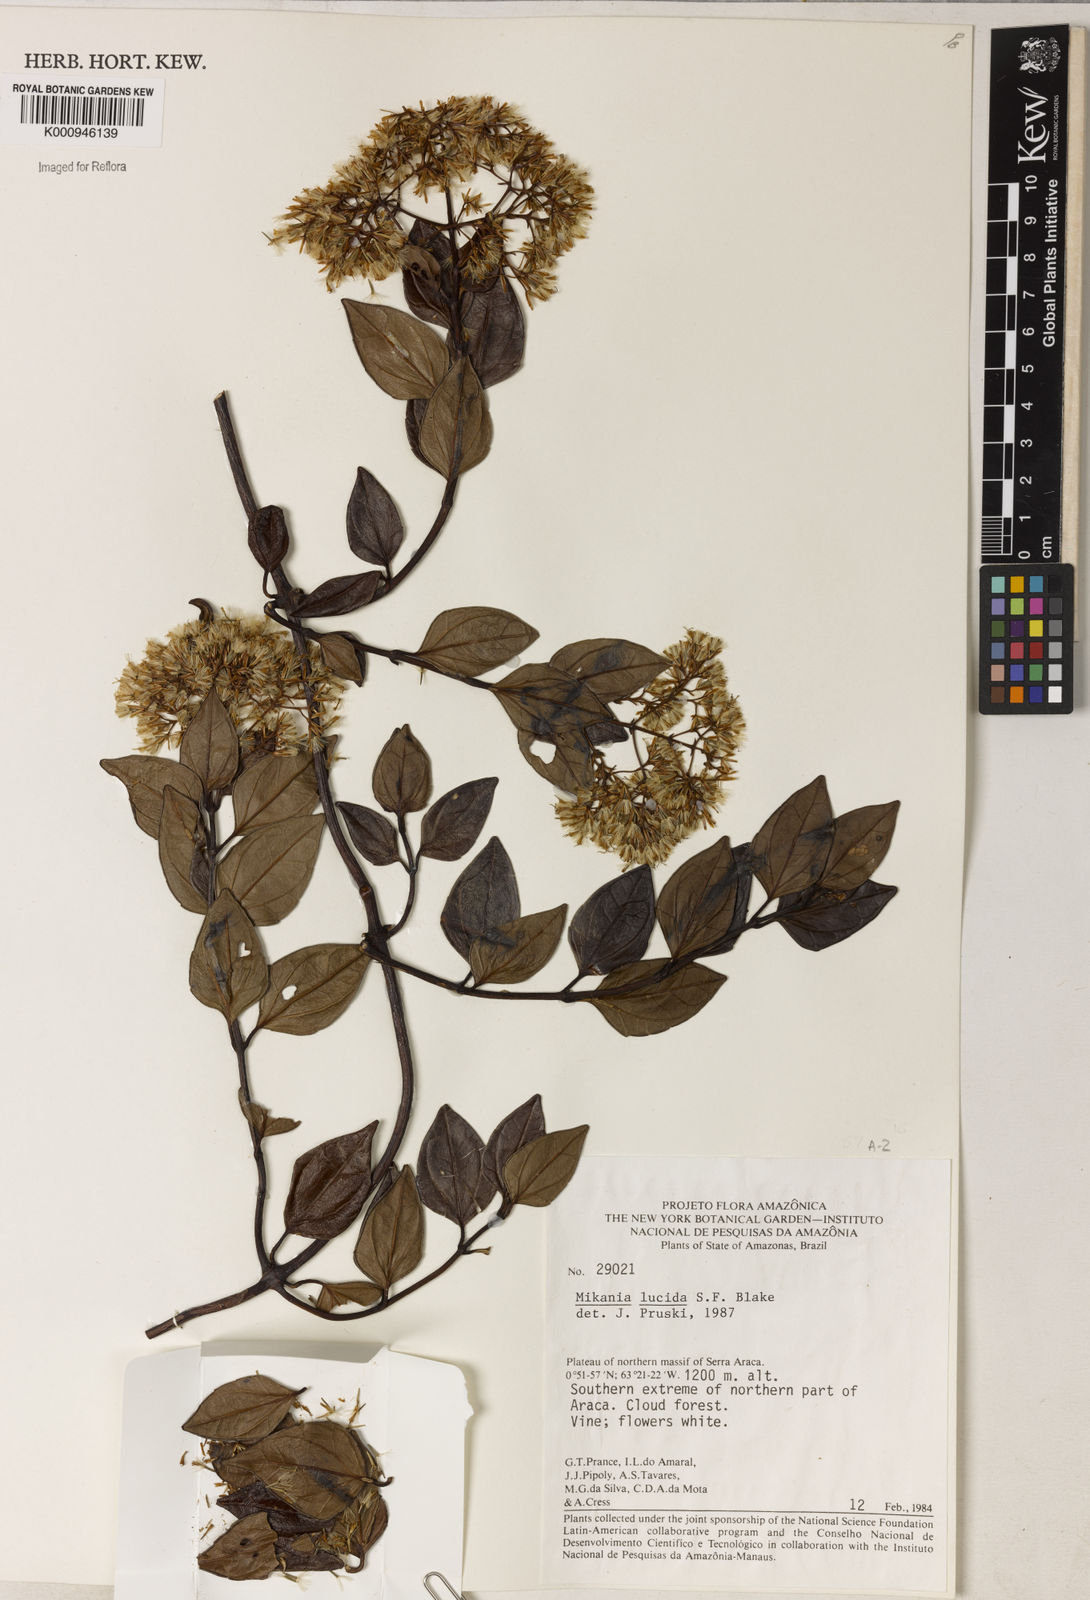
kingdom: Plantae
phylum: Tracheophyta
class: Magnoliopsida
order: Asterales
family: Asteraceae
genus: Mikania
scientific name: Mikania lucida
